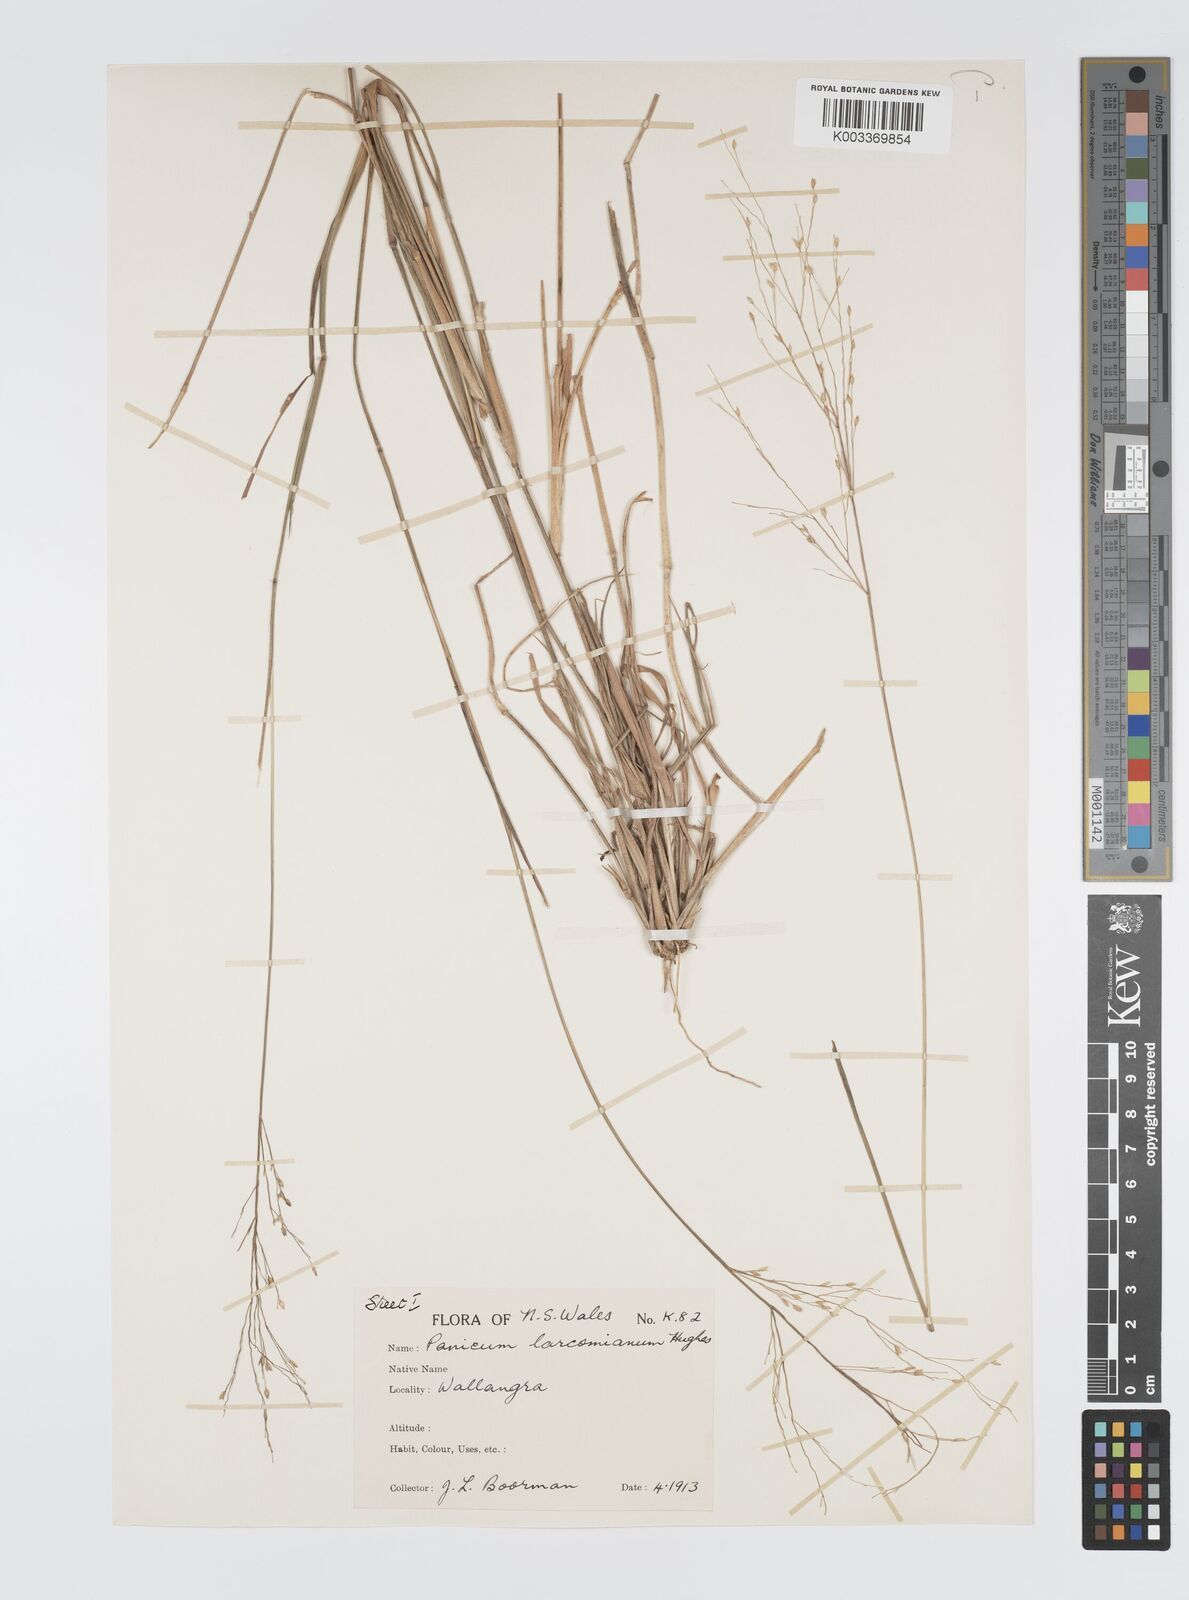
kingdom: Plantae
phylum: Tracheophyta
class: Liliopsida
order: Poales
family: Poaceae
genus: Panicum
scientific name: Panicum larcomianum
